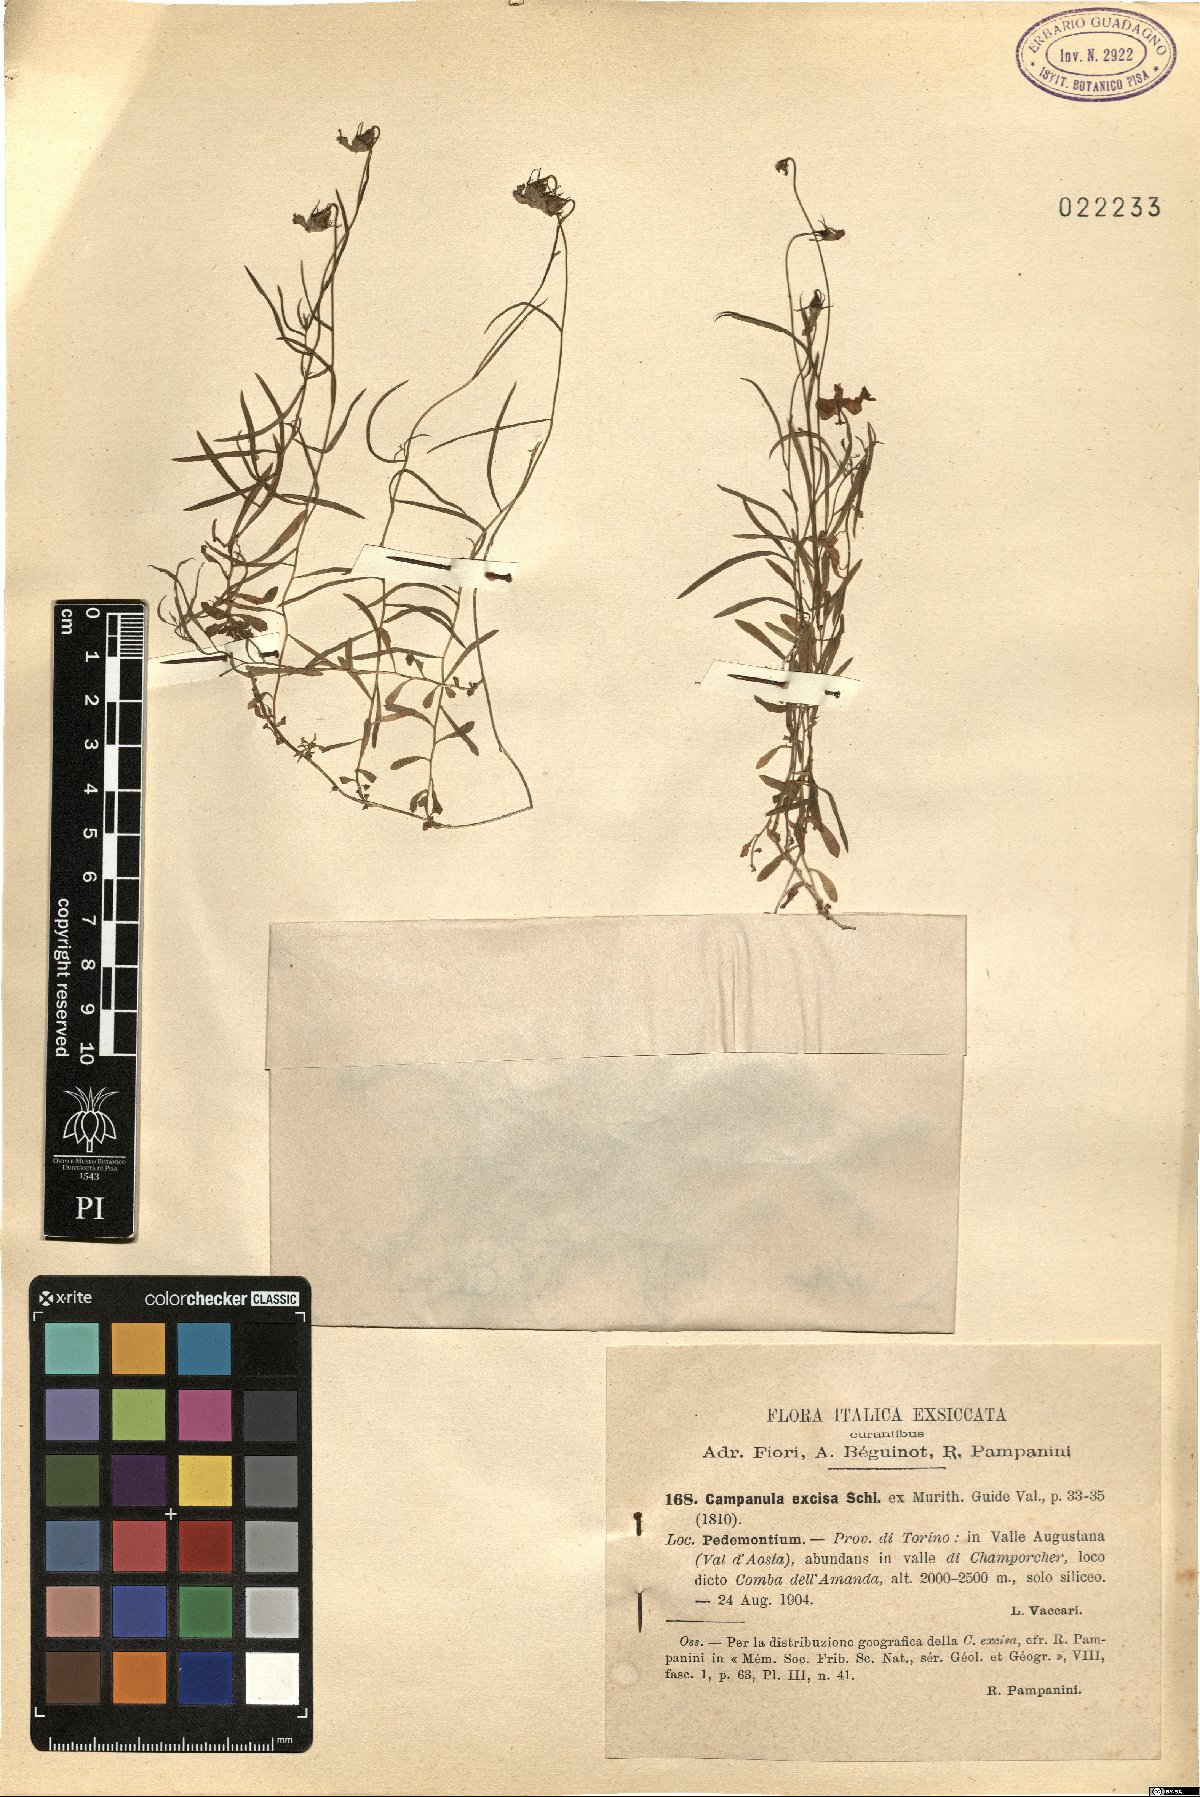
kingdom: Plantae
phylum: Tracheophyta
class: Magnoliopsida
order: Asterales
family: Campanulaceae
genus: Campanula
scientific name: Campanula excisa
